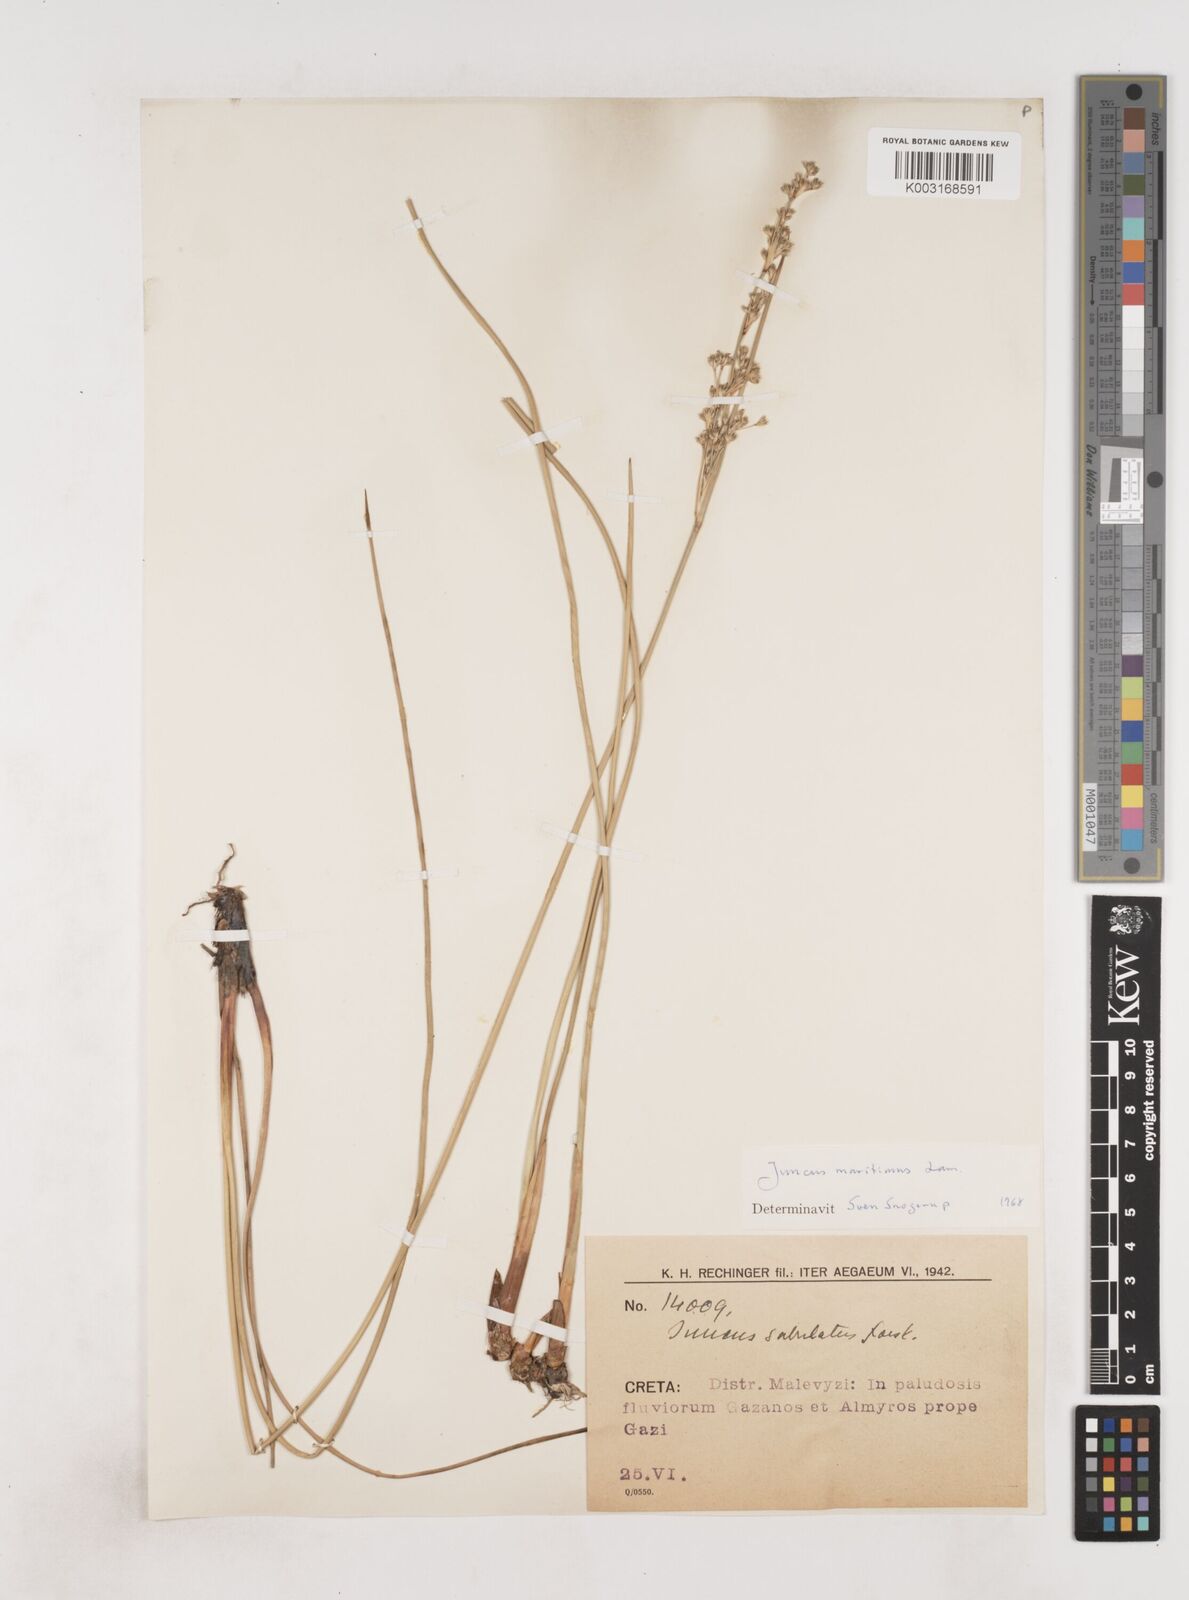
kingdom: Plantae
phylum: Tracheophyta
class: Liliopsida
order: Poales
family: Juncaceae
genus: Juncus
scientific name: Juncus maritimus
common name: Sea rush
